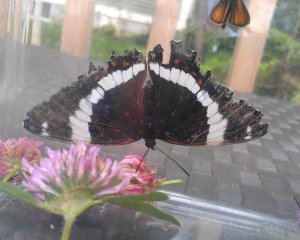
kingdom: Animalia
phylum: Arthropoda
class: Insecta
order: Lepidoptera
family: Nymphalidae
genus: Limenitis
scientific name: Limenitis arthemis
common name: Red-spotted Admiral
